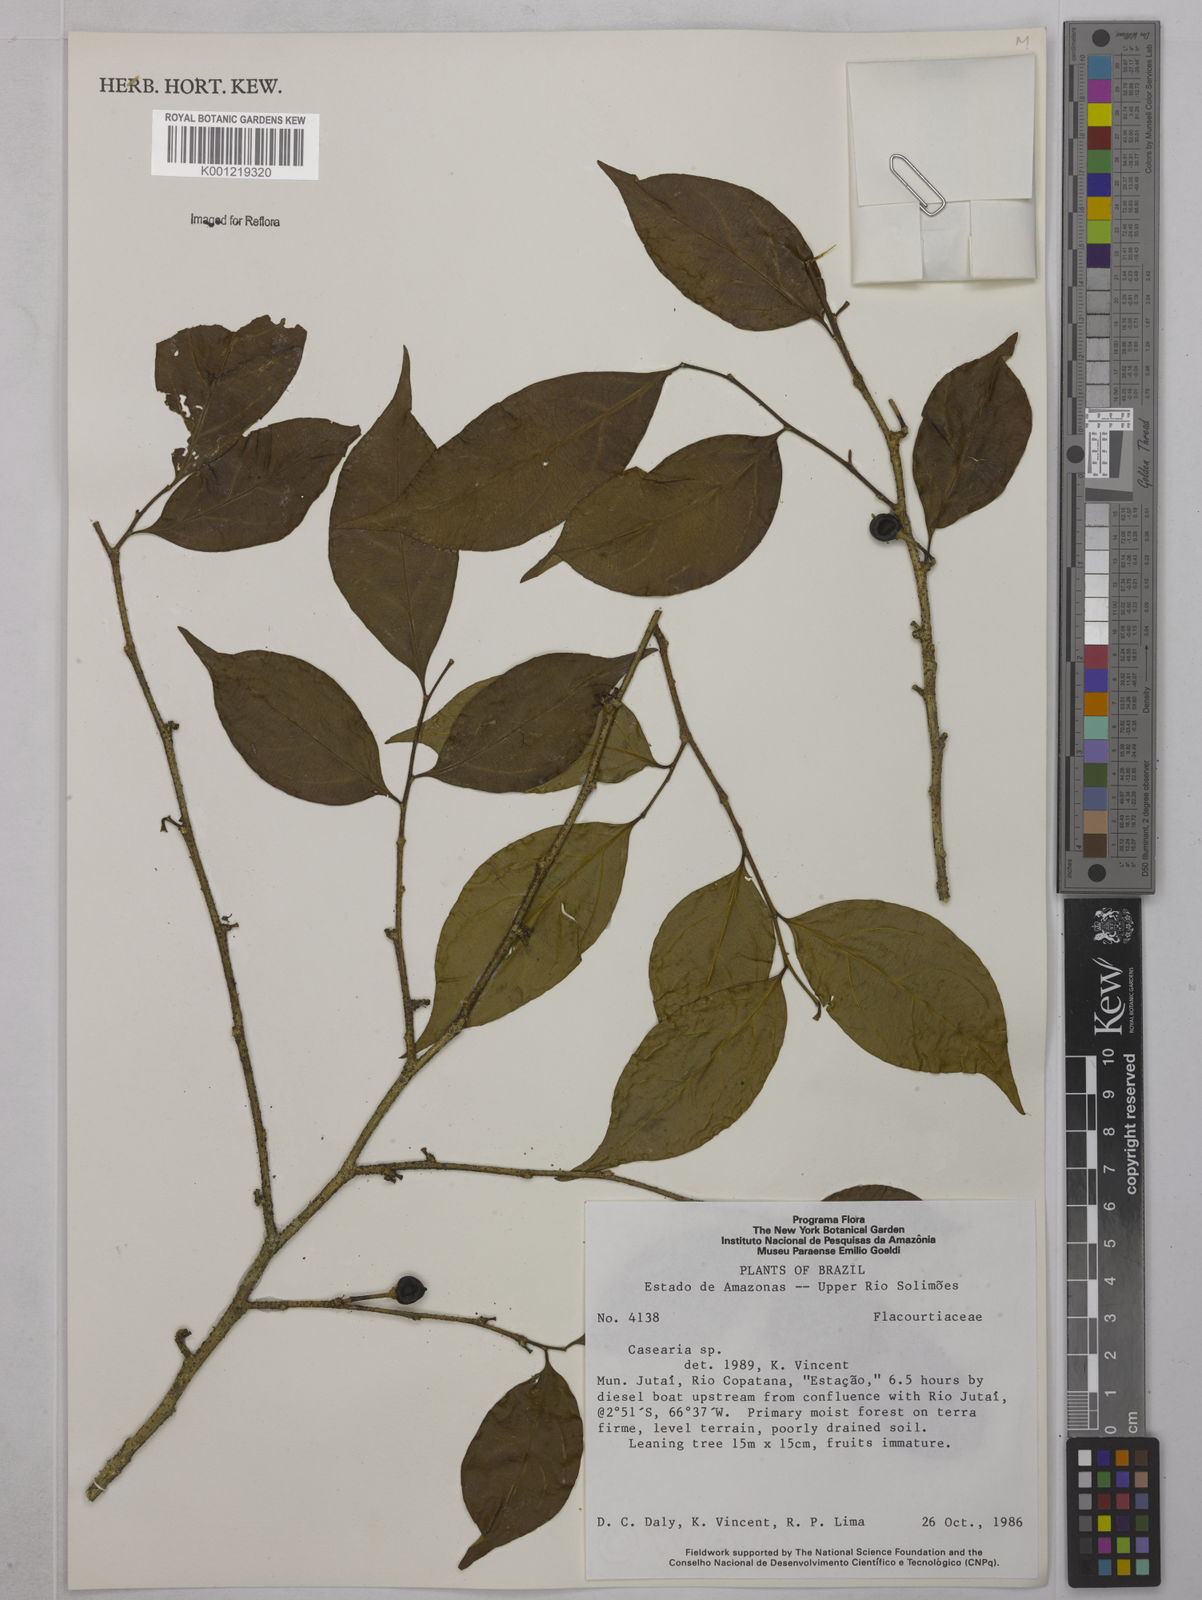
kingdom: Plantae
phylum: Tracheophyta
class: Magnoliopsida
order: Malpighiales
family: Salicaceae
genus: Casearia
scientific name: Casearia
